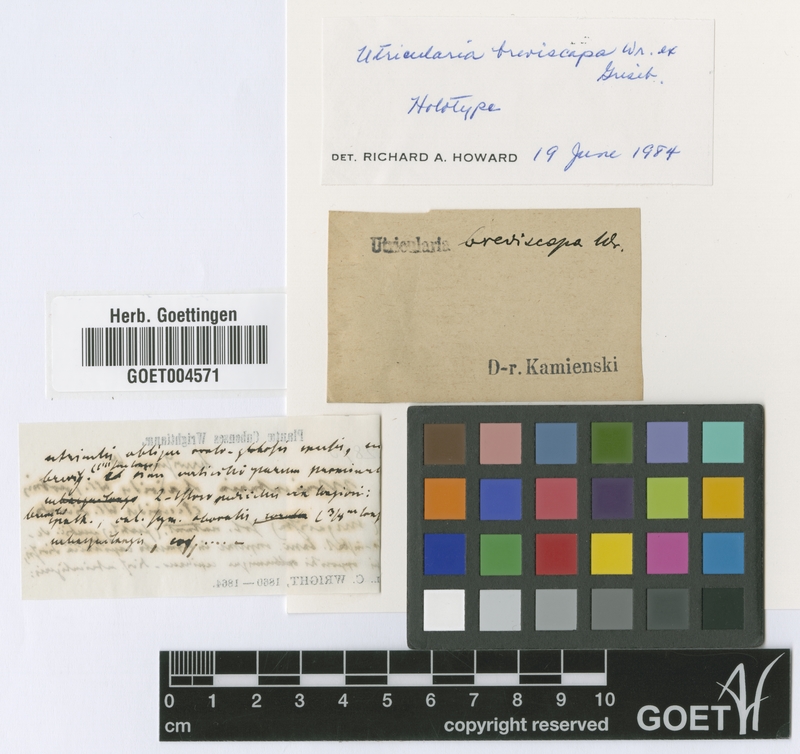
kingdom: Plantae
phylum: Tracheophyta
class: Magnoliopsida
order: Lamiales
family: Lentibulariaceae
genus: Utricularia
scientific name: Utricularia breviscapa
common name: Bladderwort
